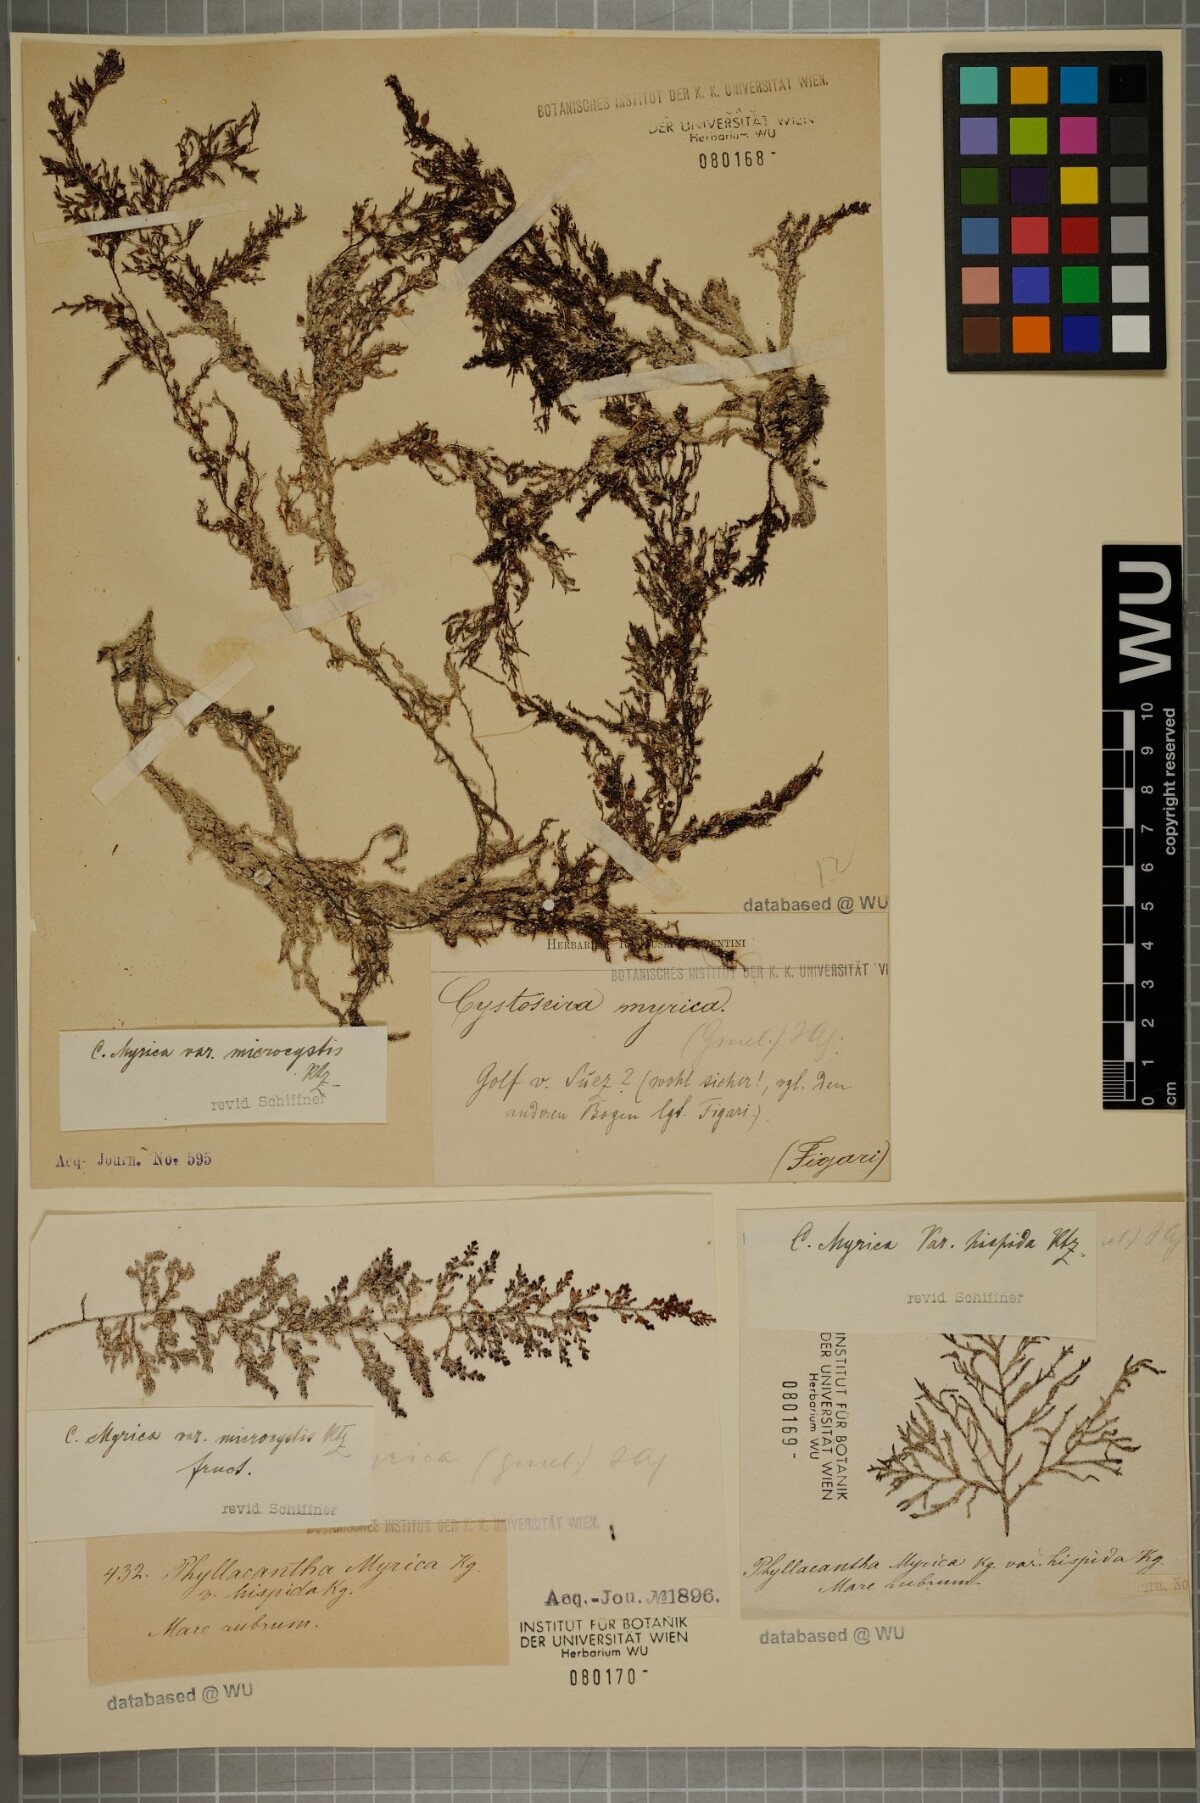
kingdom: Chromista
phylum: Ochrophyta
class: Phaeophyceae
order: Fucales
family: Sargassaceae
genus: Polycladia
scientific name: Polycladia myrica
